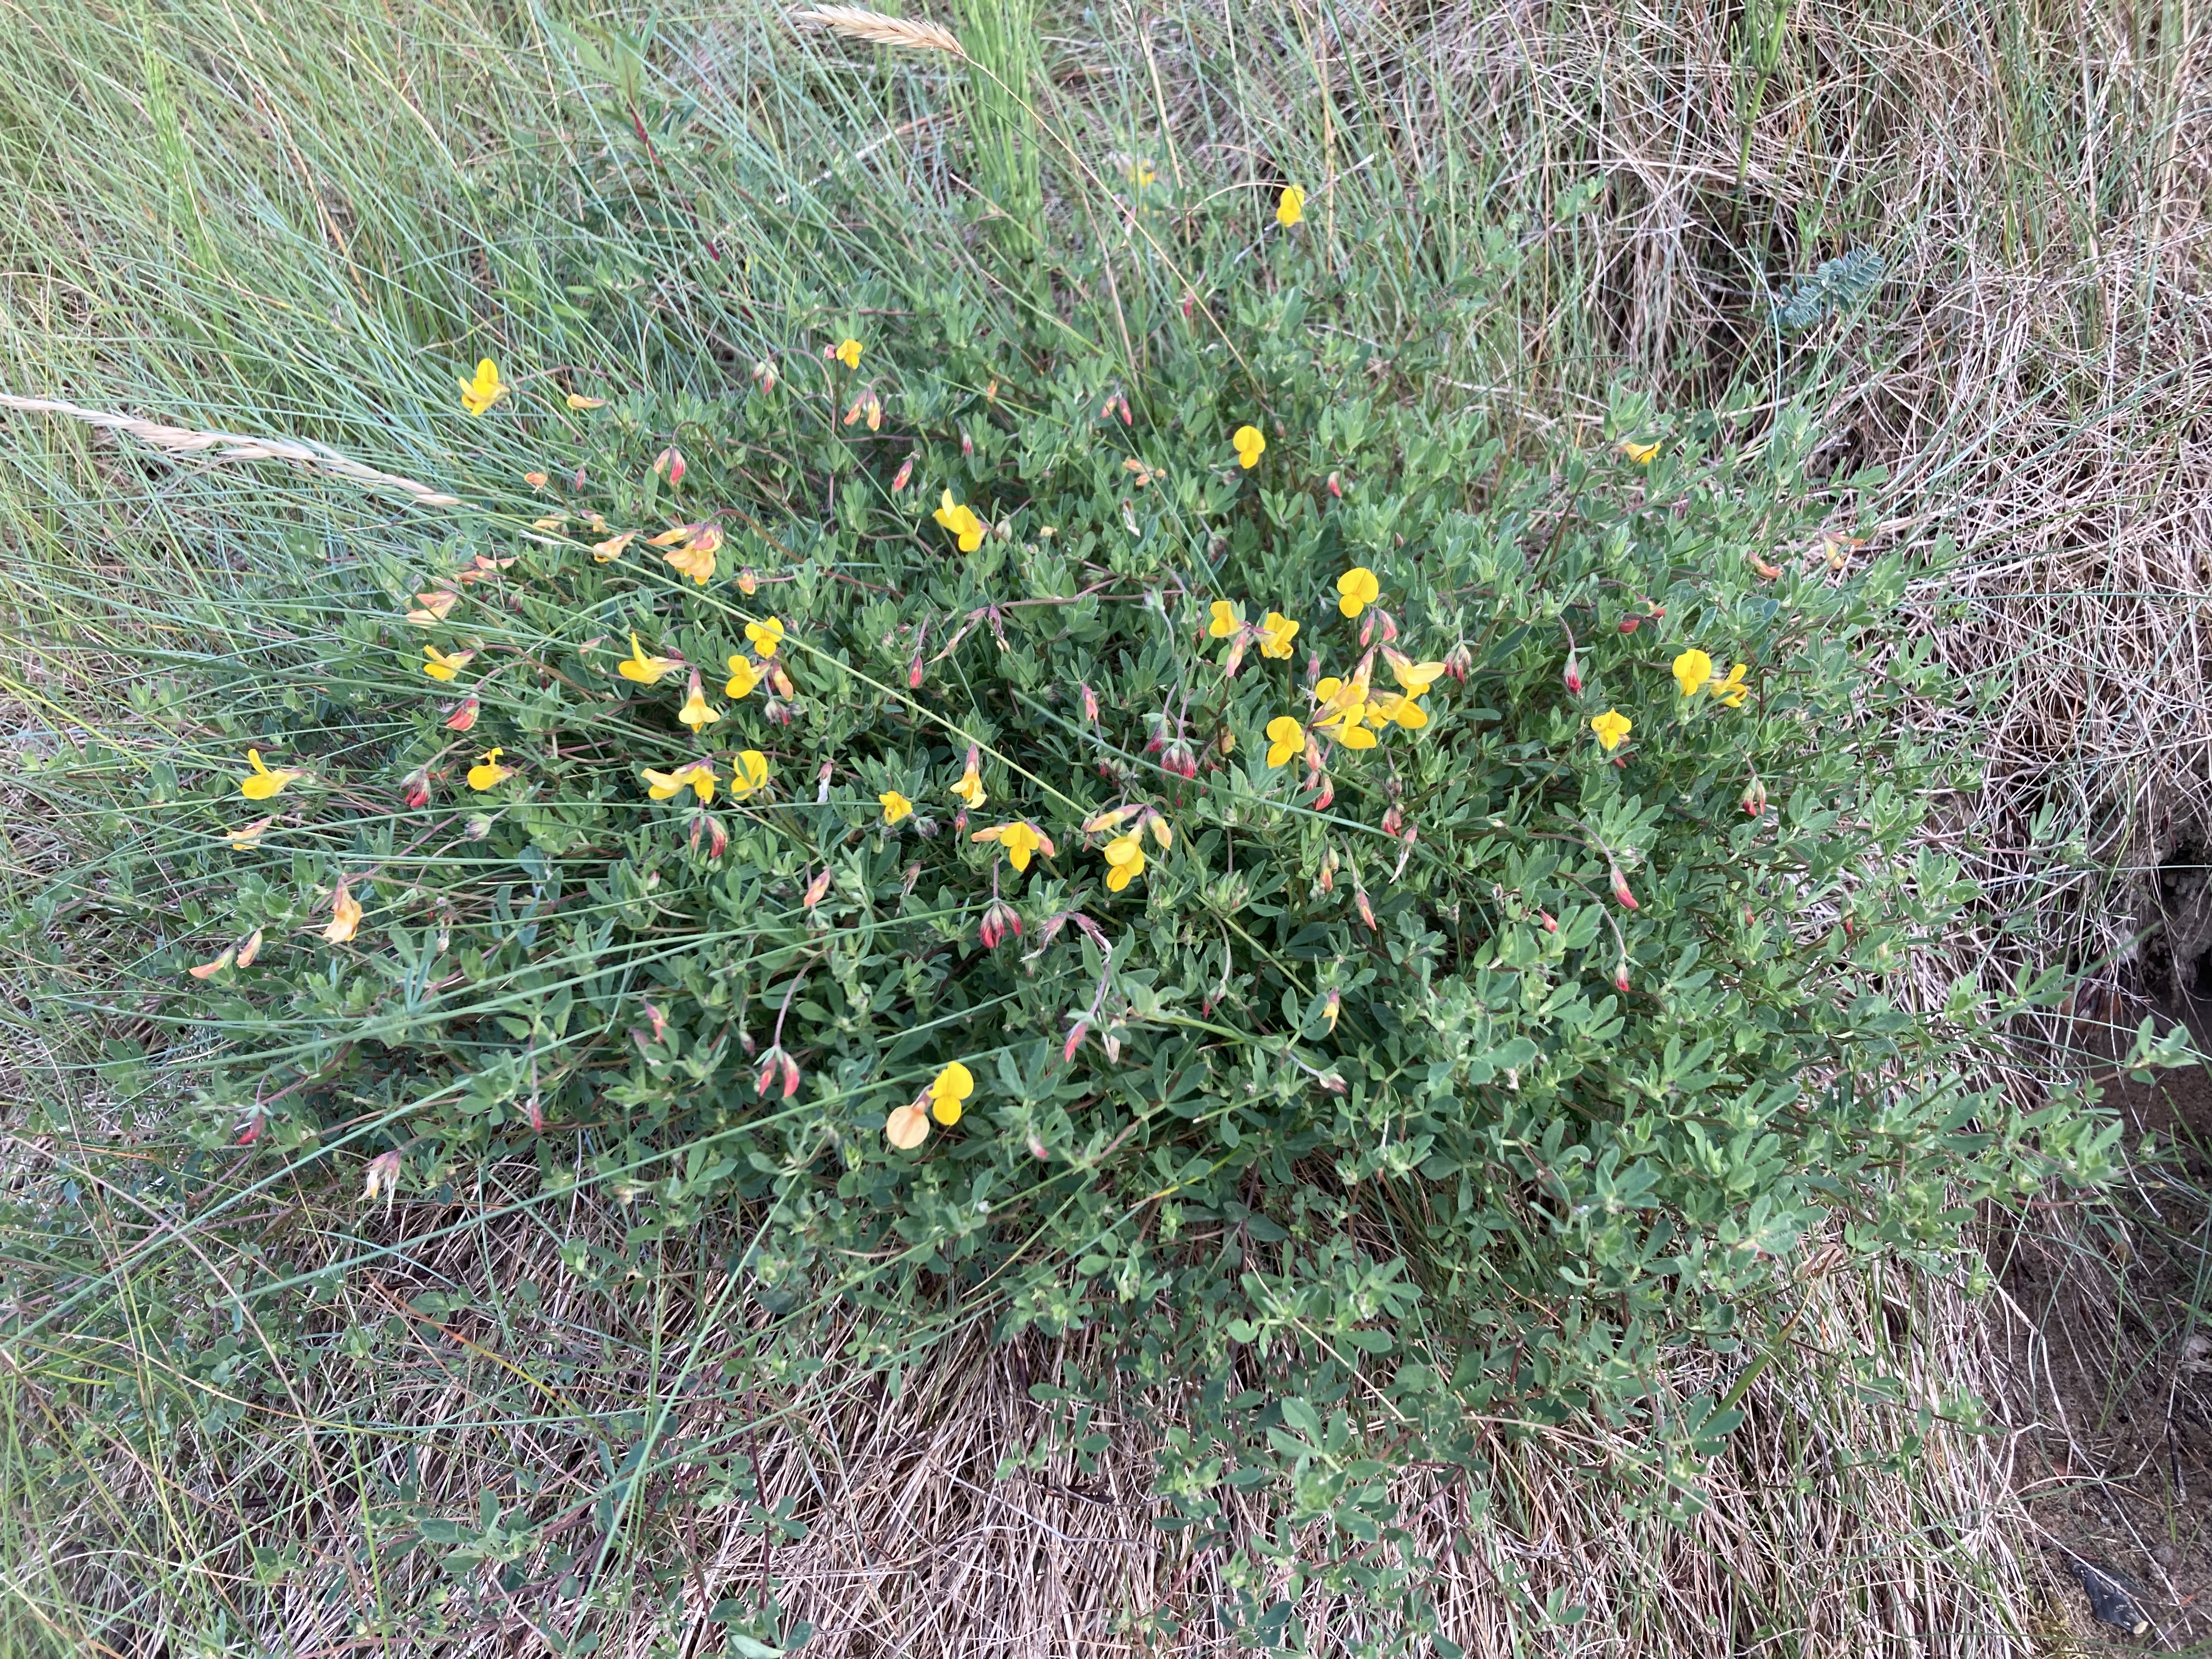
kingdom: Plantae
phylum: Tracheophyta
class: Magnoliopsida
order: Fabales
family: Fabaceae
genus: Lotus
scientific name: Lotus corniculatus
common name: Almindelig kællingetand
